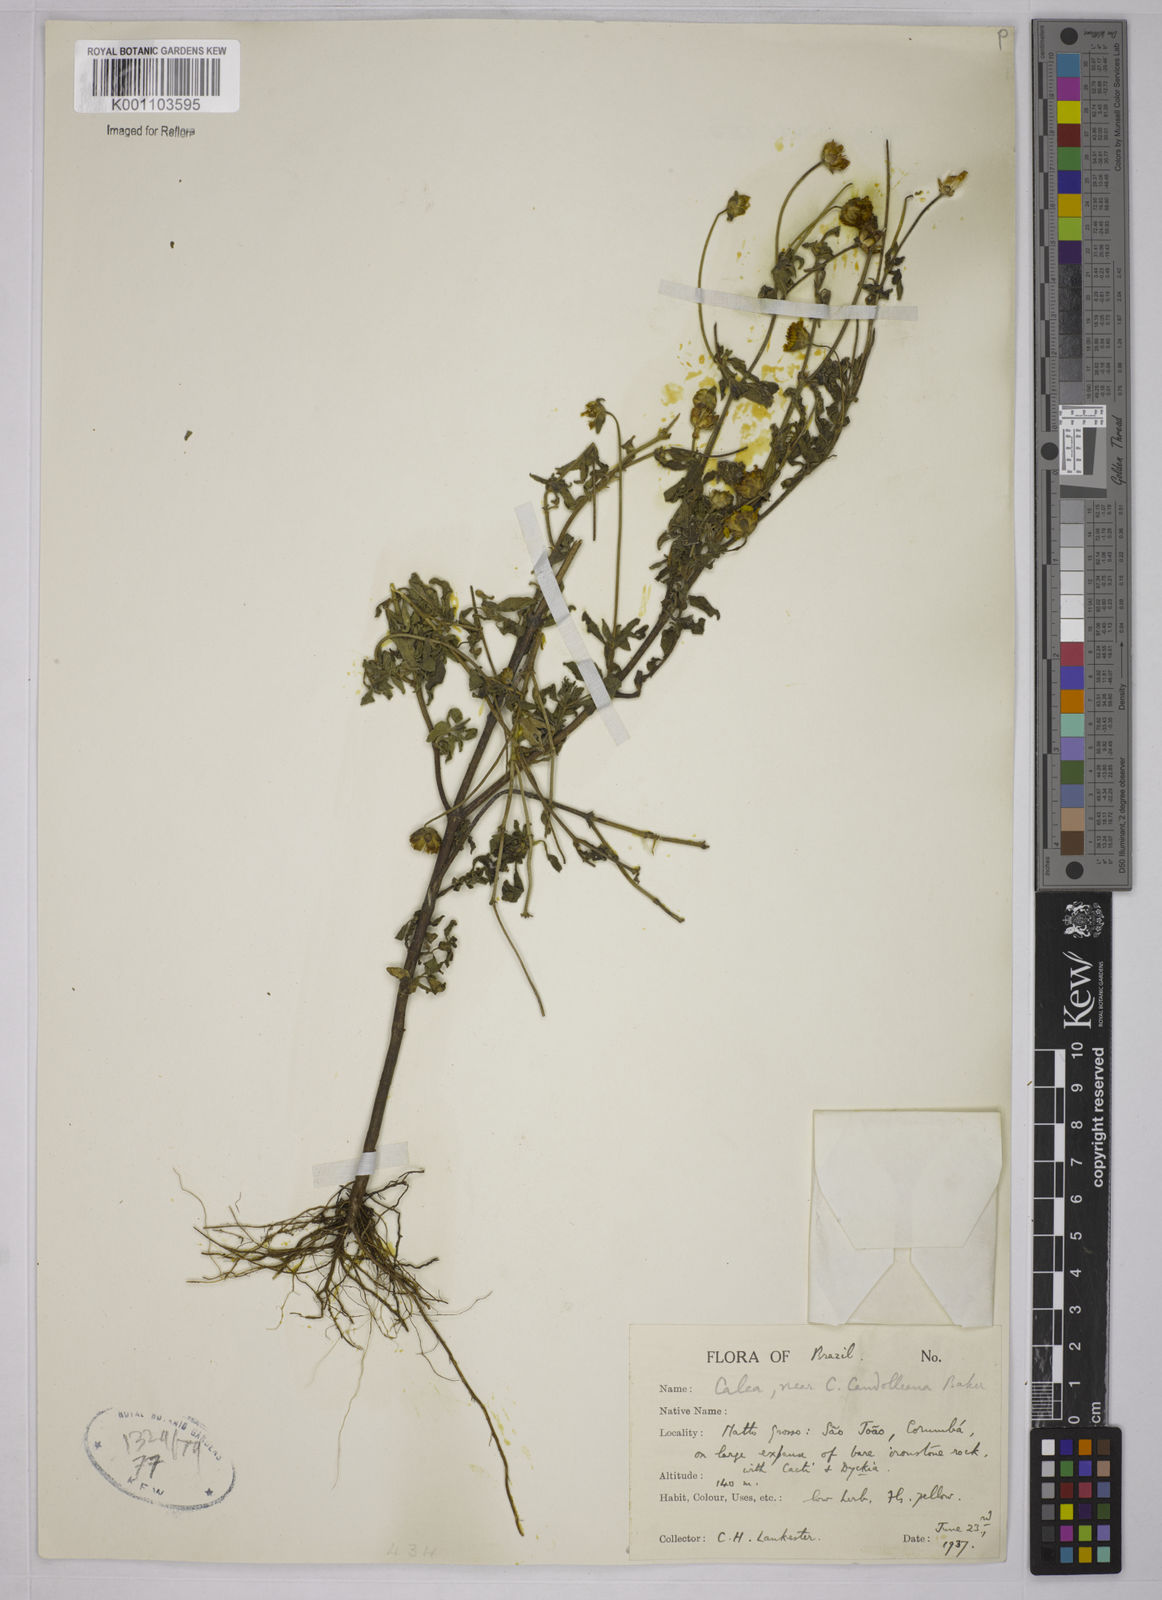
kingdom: Plantae
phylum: Tracheophyta
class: Magnoliopsida
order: Asterales
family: Asteraceae
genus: Calea
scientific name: Calea candolleana
